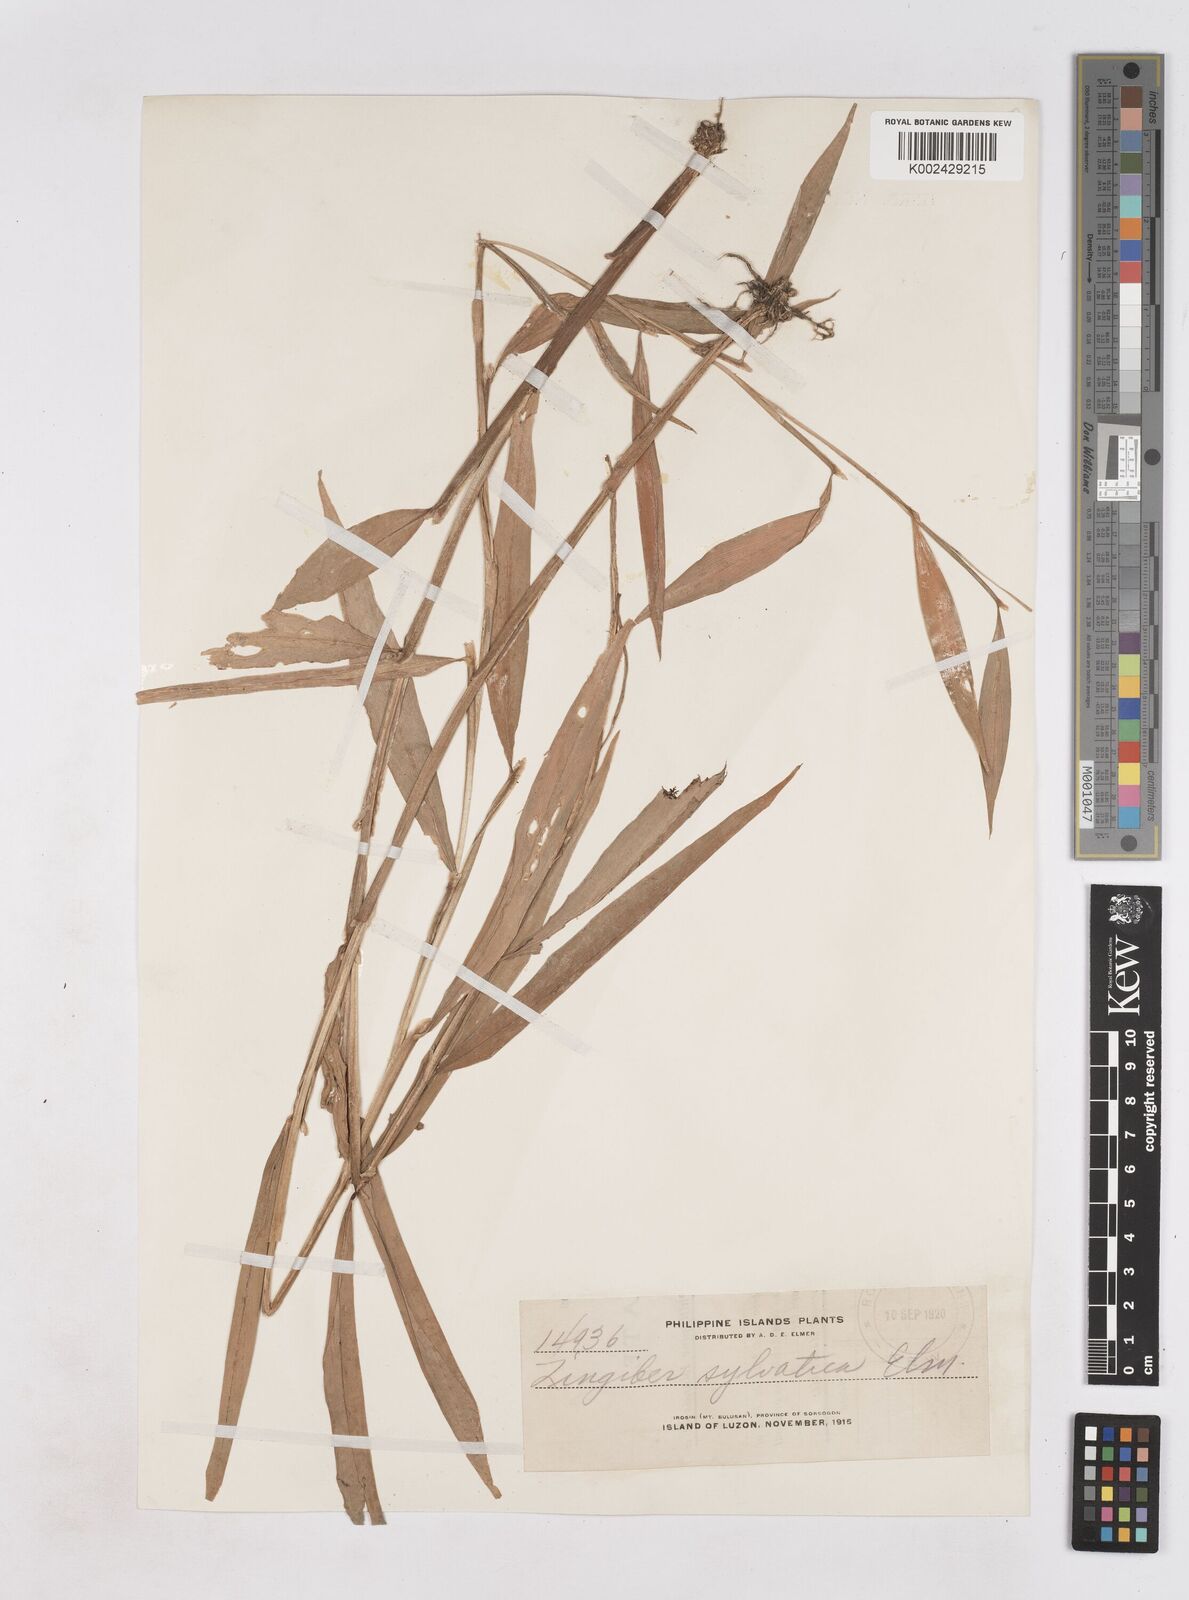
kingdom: Plantae
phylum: Tracheophyta
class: Liliopsida
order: Zingiberales
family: Zingiberaceae
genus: Zingiber
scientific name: Zingiber molle
